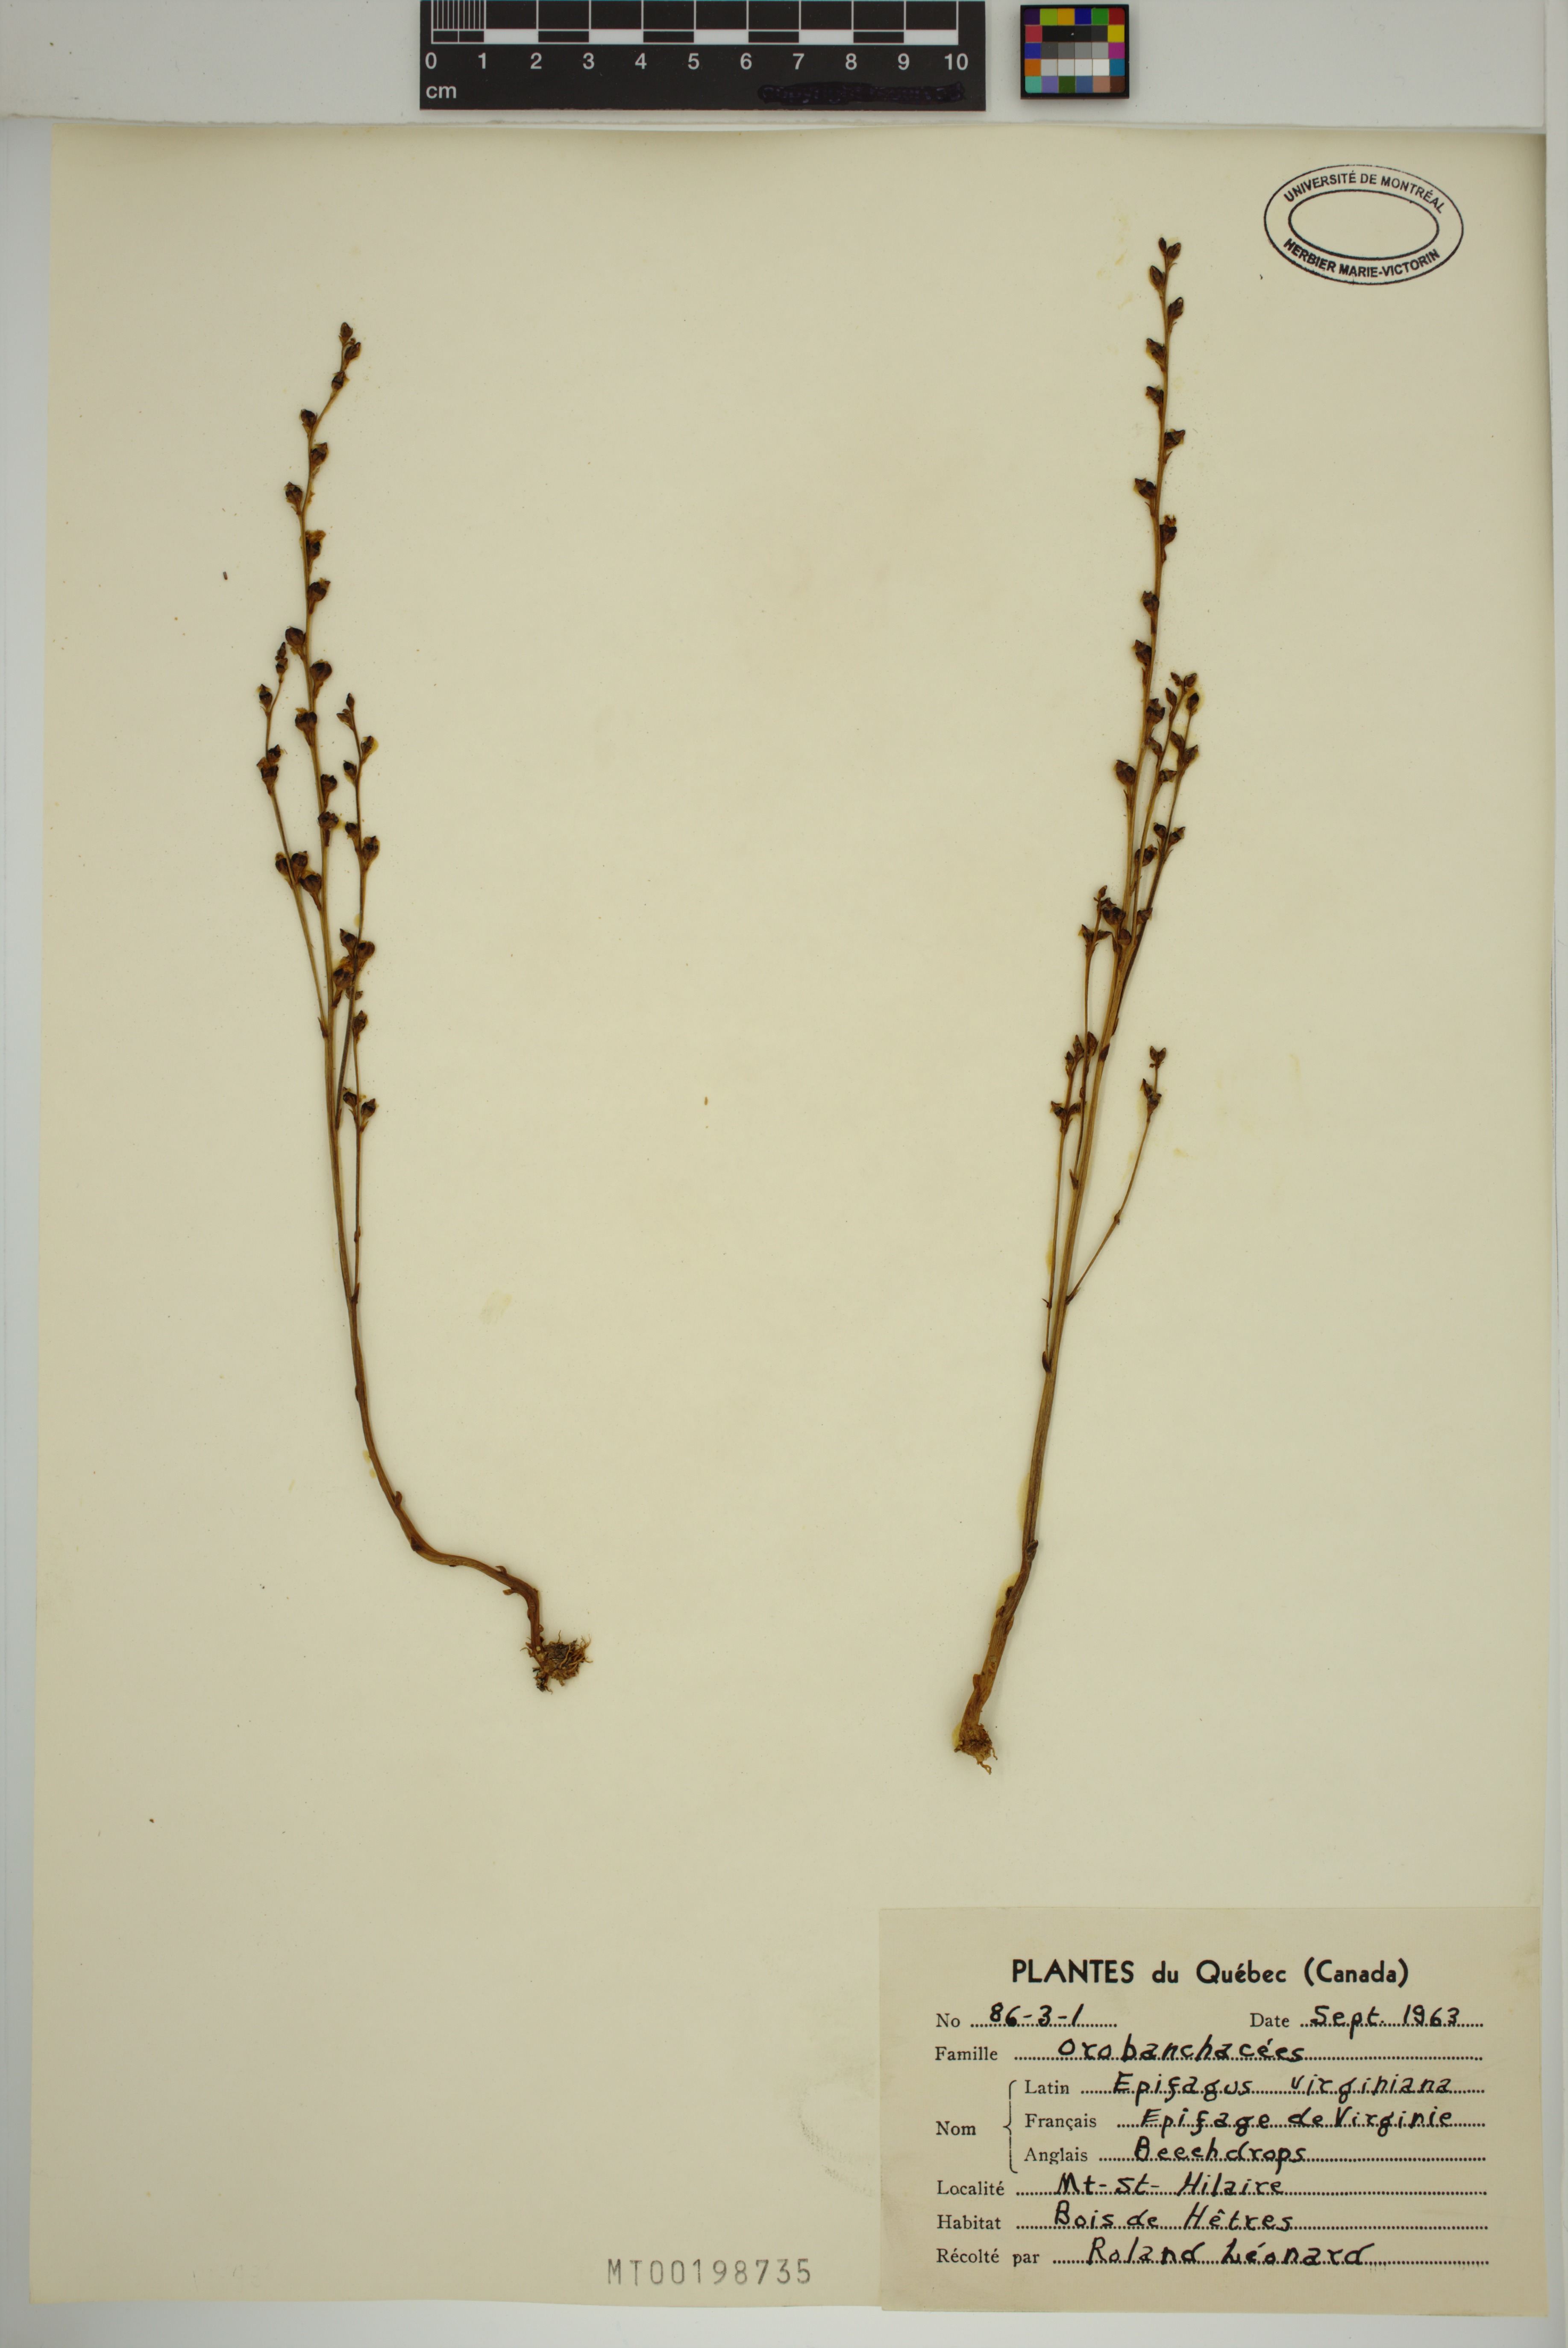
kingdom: Plantae
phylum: Tracheophyta
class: Magnoliopsida
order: Lamiales
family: Orobanchaceae
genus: Epifagus
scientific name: Epifagus virginiana
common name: Beechdrops
